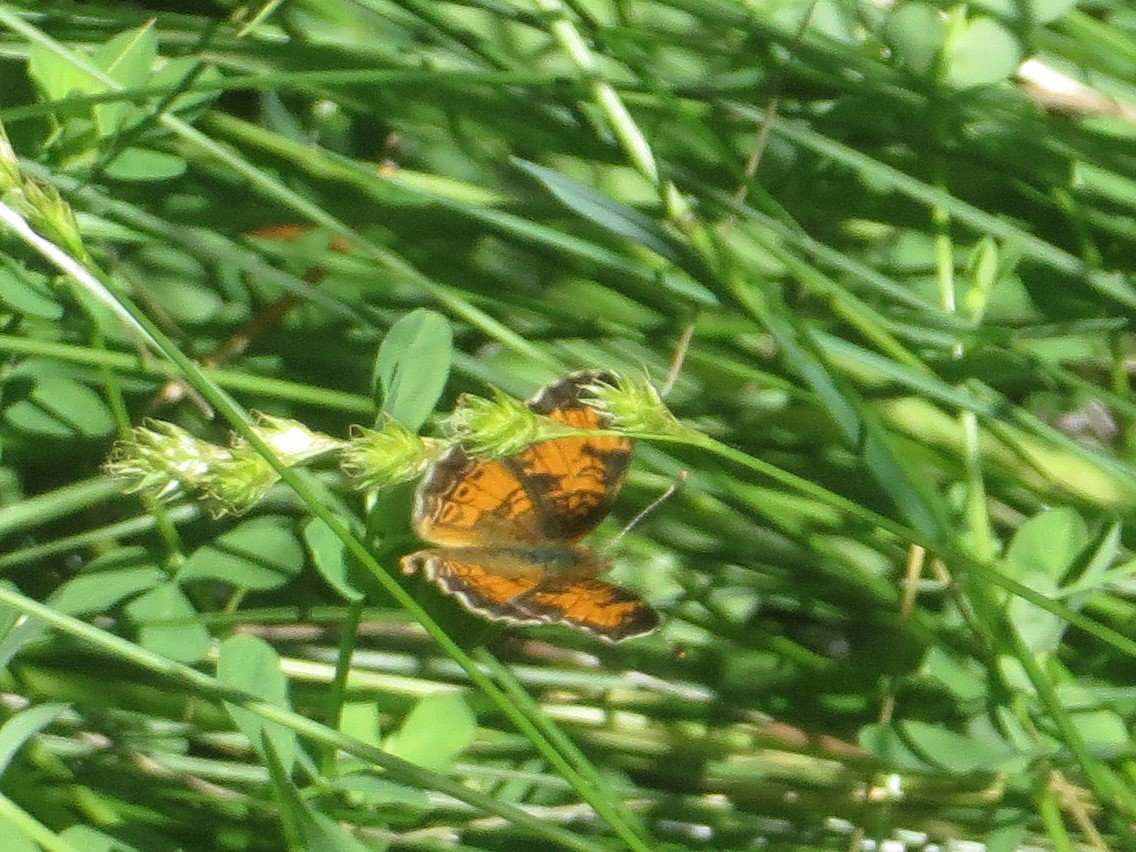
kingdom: Animalia
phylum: Arthropoda
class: Insecta
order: Lepidoptera
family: Nymphalidae
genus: Phyciodes
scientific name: Phyciodes tharos
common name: Northern Crescent
